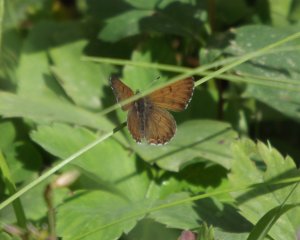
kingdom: Animalia
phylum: Arthropoda
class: Insecta
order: Lepidoptera
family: Lycaenidae
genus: Lycaena
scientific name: Lycaena mariposa
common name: Mariposa Copper
